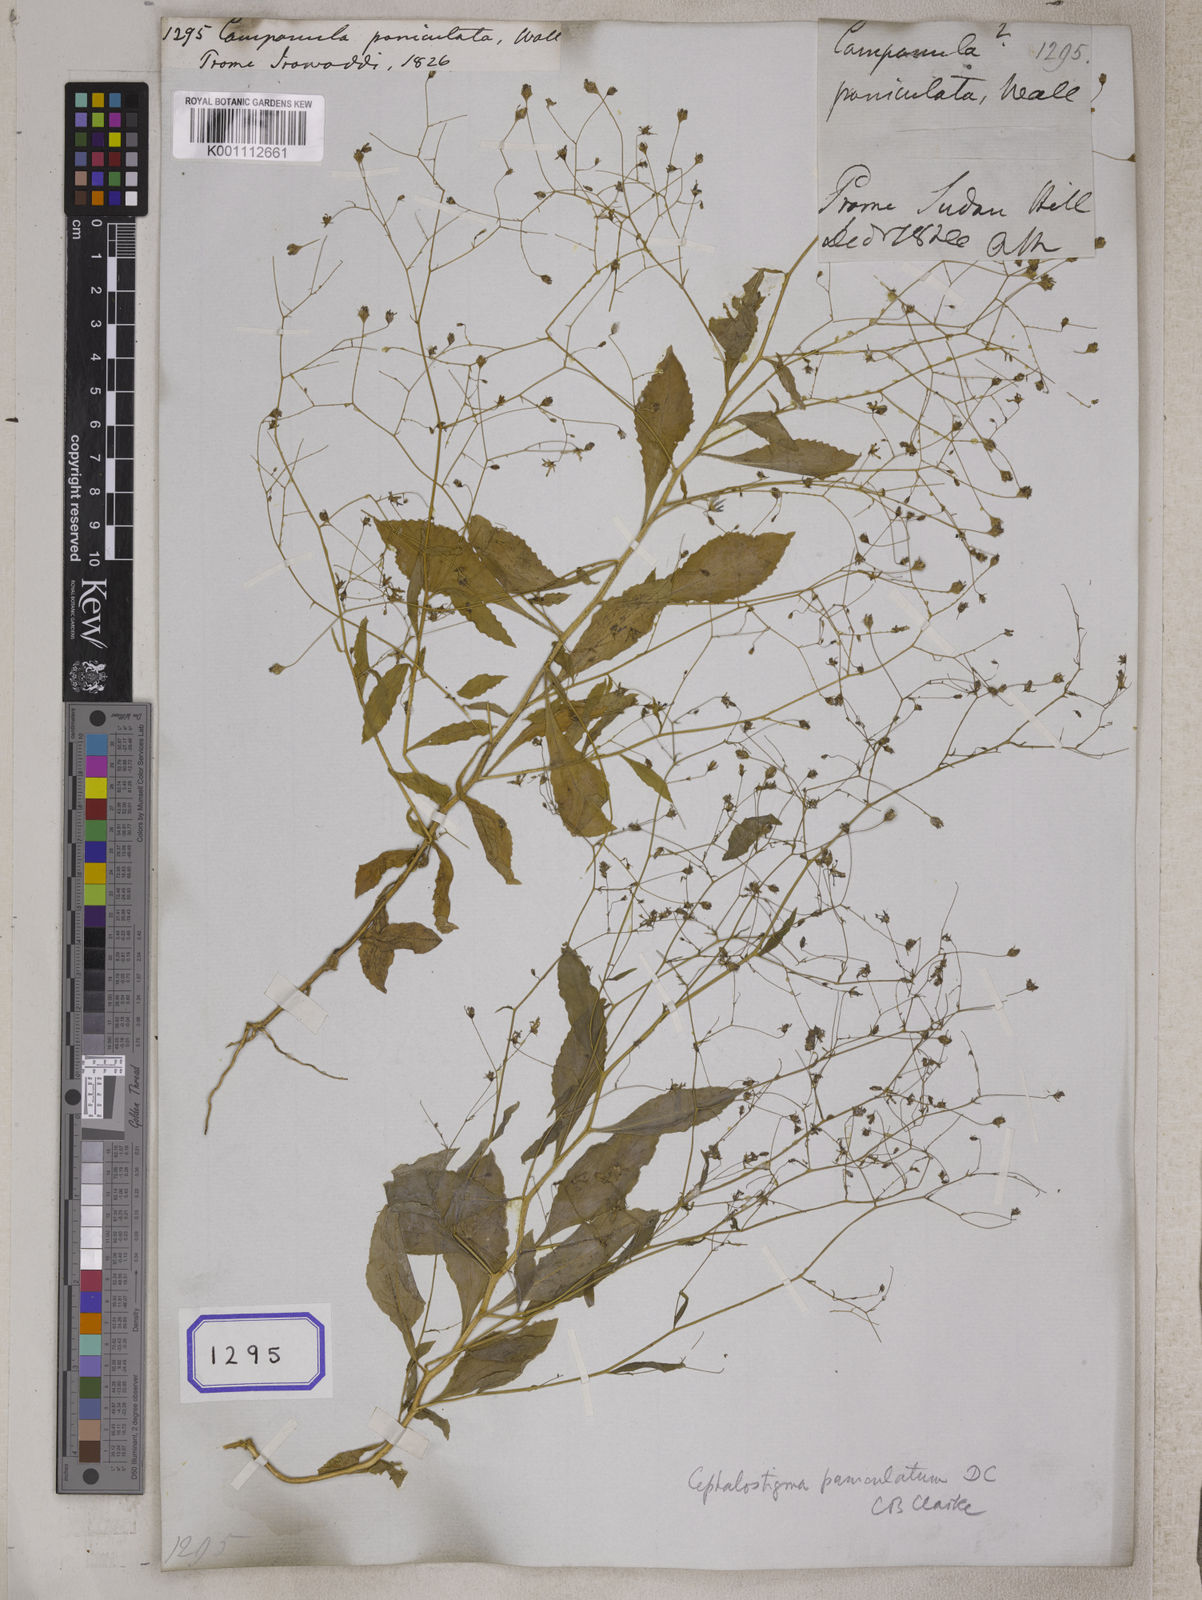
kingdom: Plantae
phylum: Tracheophyta
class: Magnoliopsida
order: Asterales
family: Campanulaceae
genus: Campanula
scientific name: Campanula
